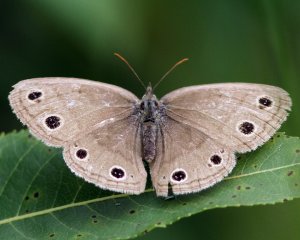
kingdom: Animalia
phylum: Arthropoda
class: Insecta
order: Lepidoptera
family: Nymphalidae
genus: Euptychia
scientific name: Euptychia cymela
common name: Little Wood Satyr
